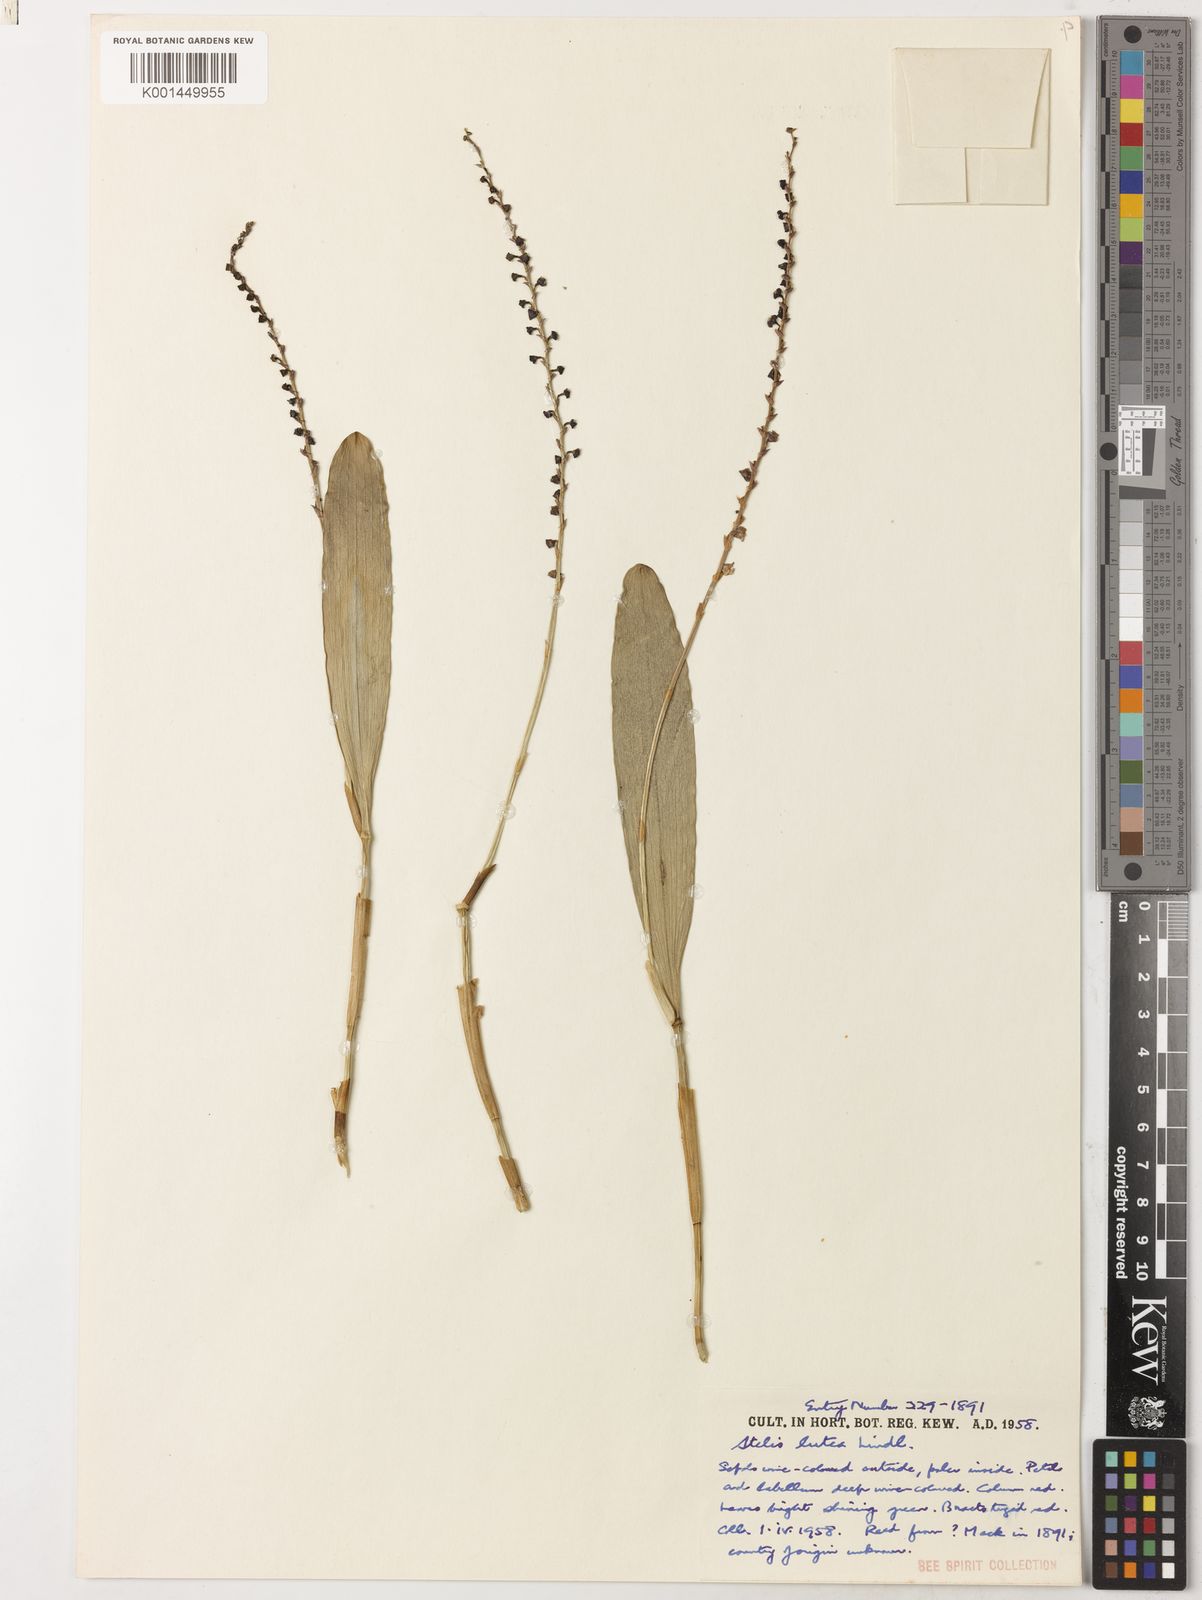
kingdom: Plantae
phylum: Tracheophyta
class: Liliopsida
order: Asparagales
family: Orchidaceae
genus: Stelis
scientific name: Stelis lutea
